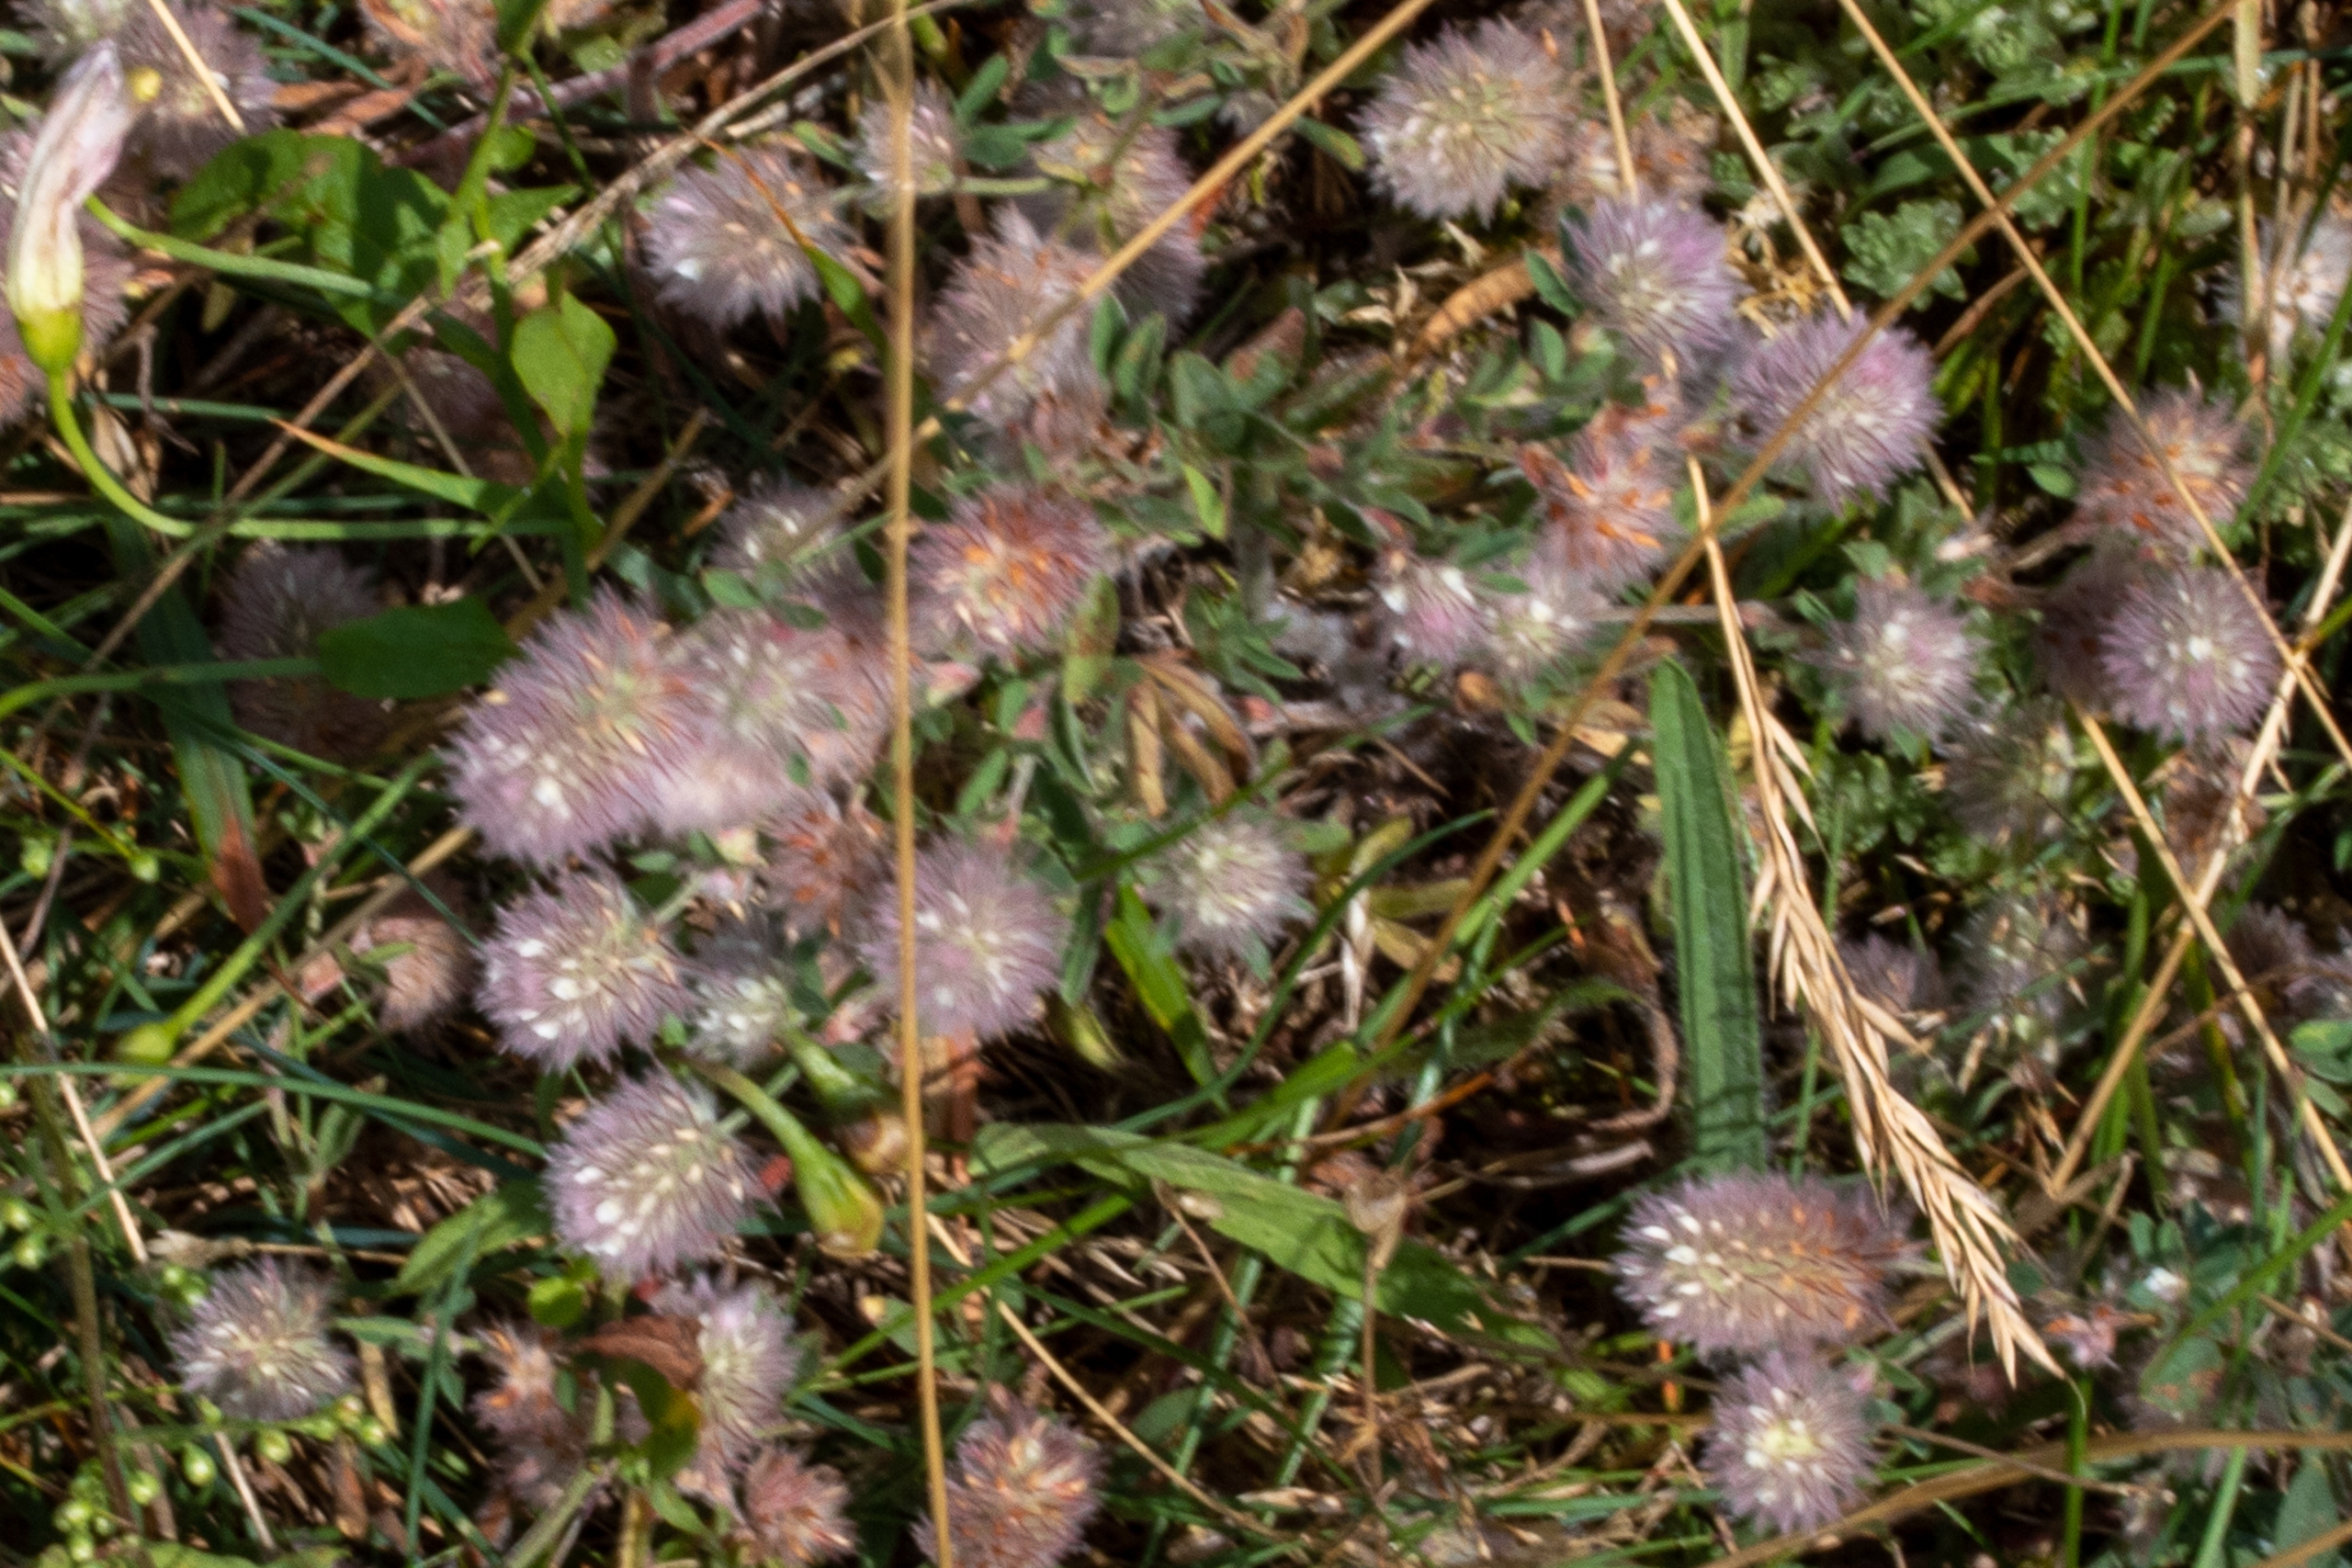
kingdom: Plantae
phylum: Tracheophyta
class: Magnoliopsida
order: Fabales
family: Fabaceae
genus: Trifolium
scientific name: Trifolium arvense
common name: Hare-kløver
